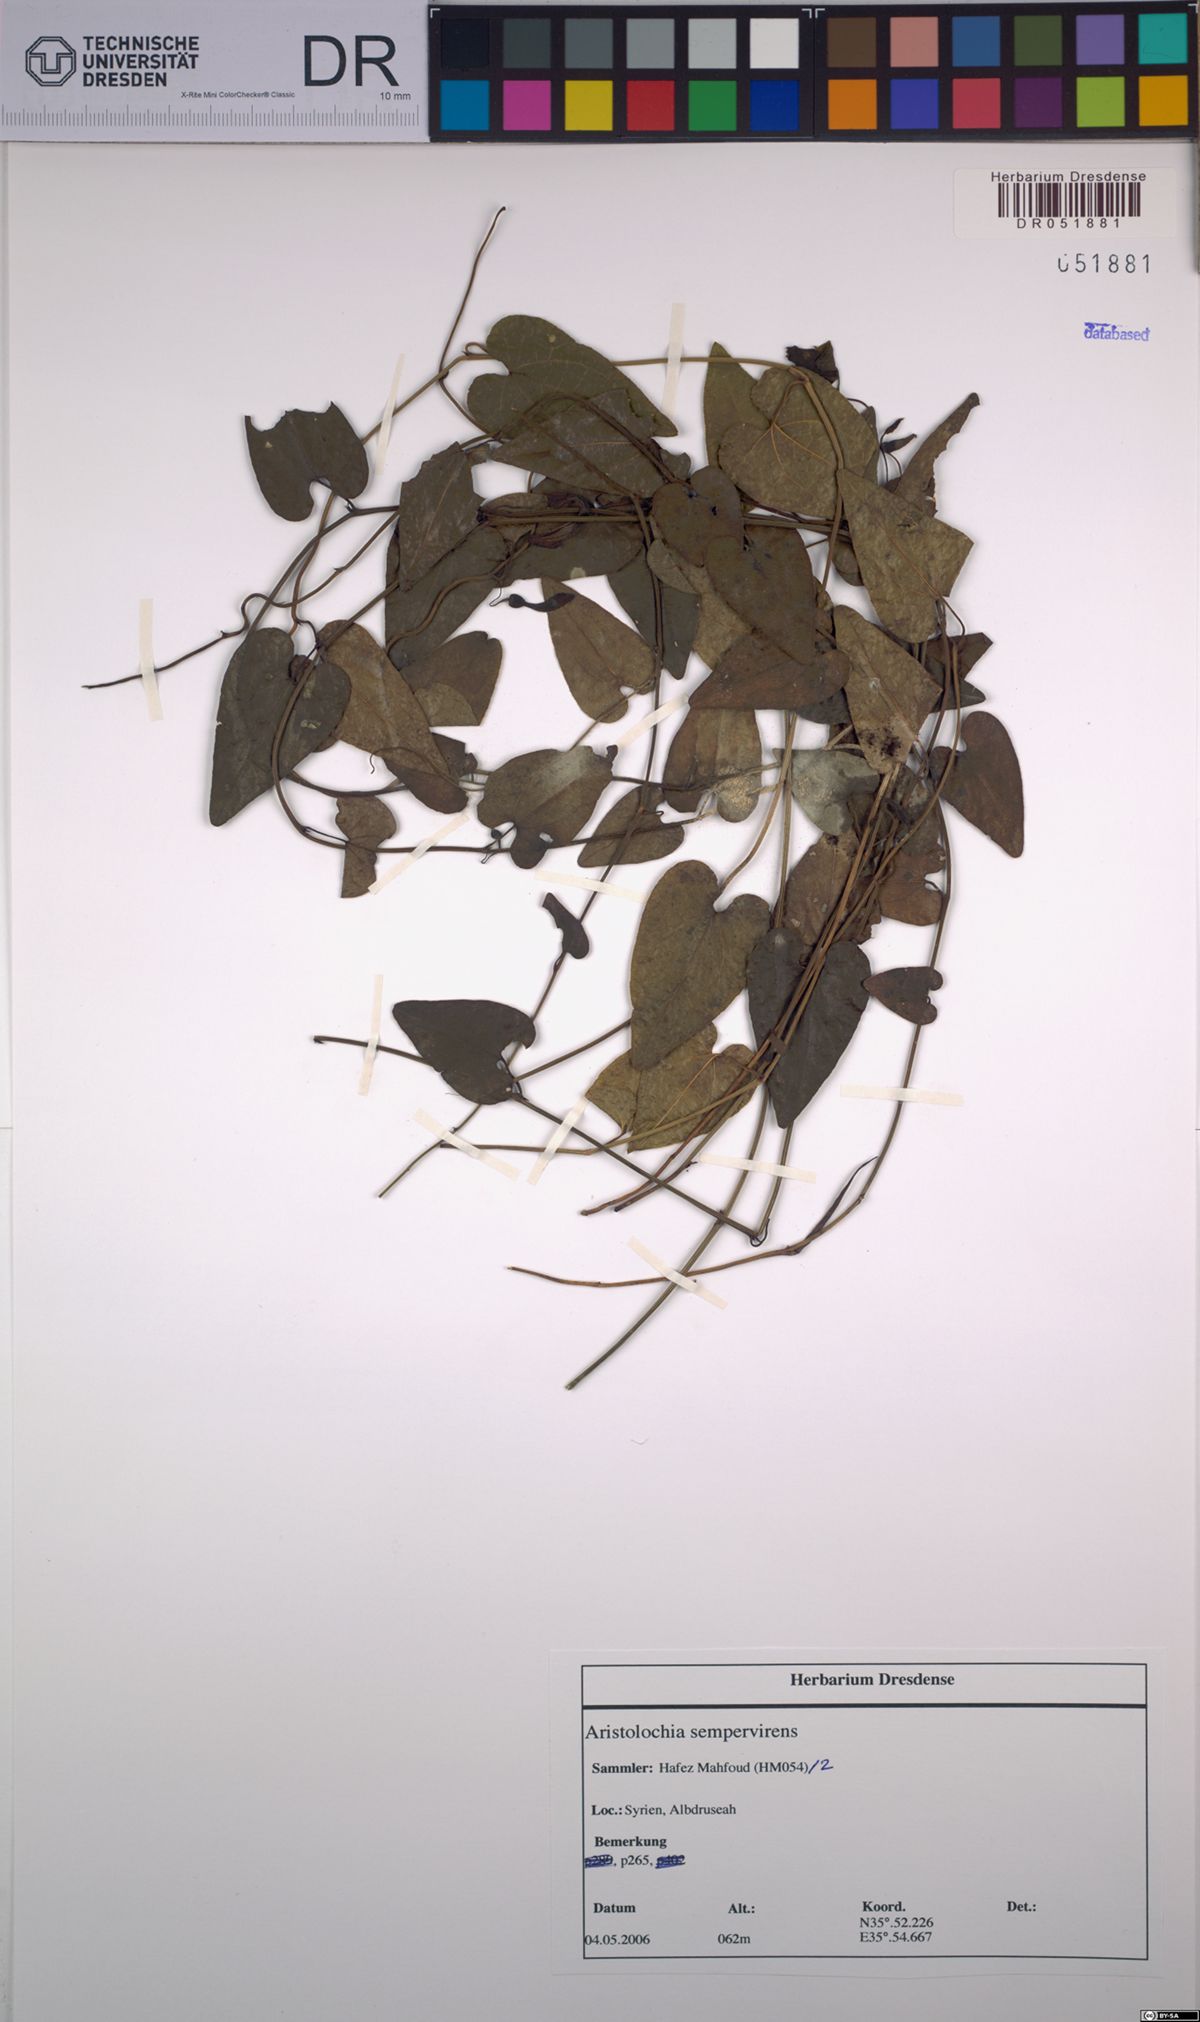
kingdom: Plantae
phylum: Tracheophyta
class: Magnoliopsida
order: Piperales
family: Aristolochiaceae
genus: Aristolochia
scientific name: Aristolochia sempervirens
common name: Long birthwort
